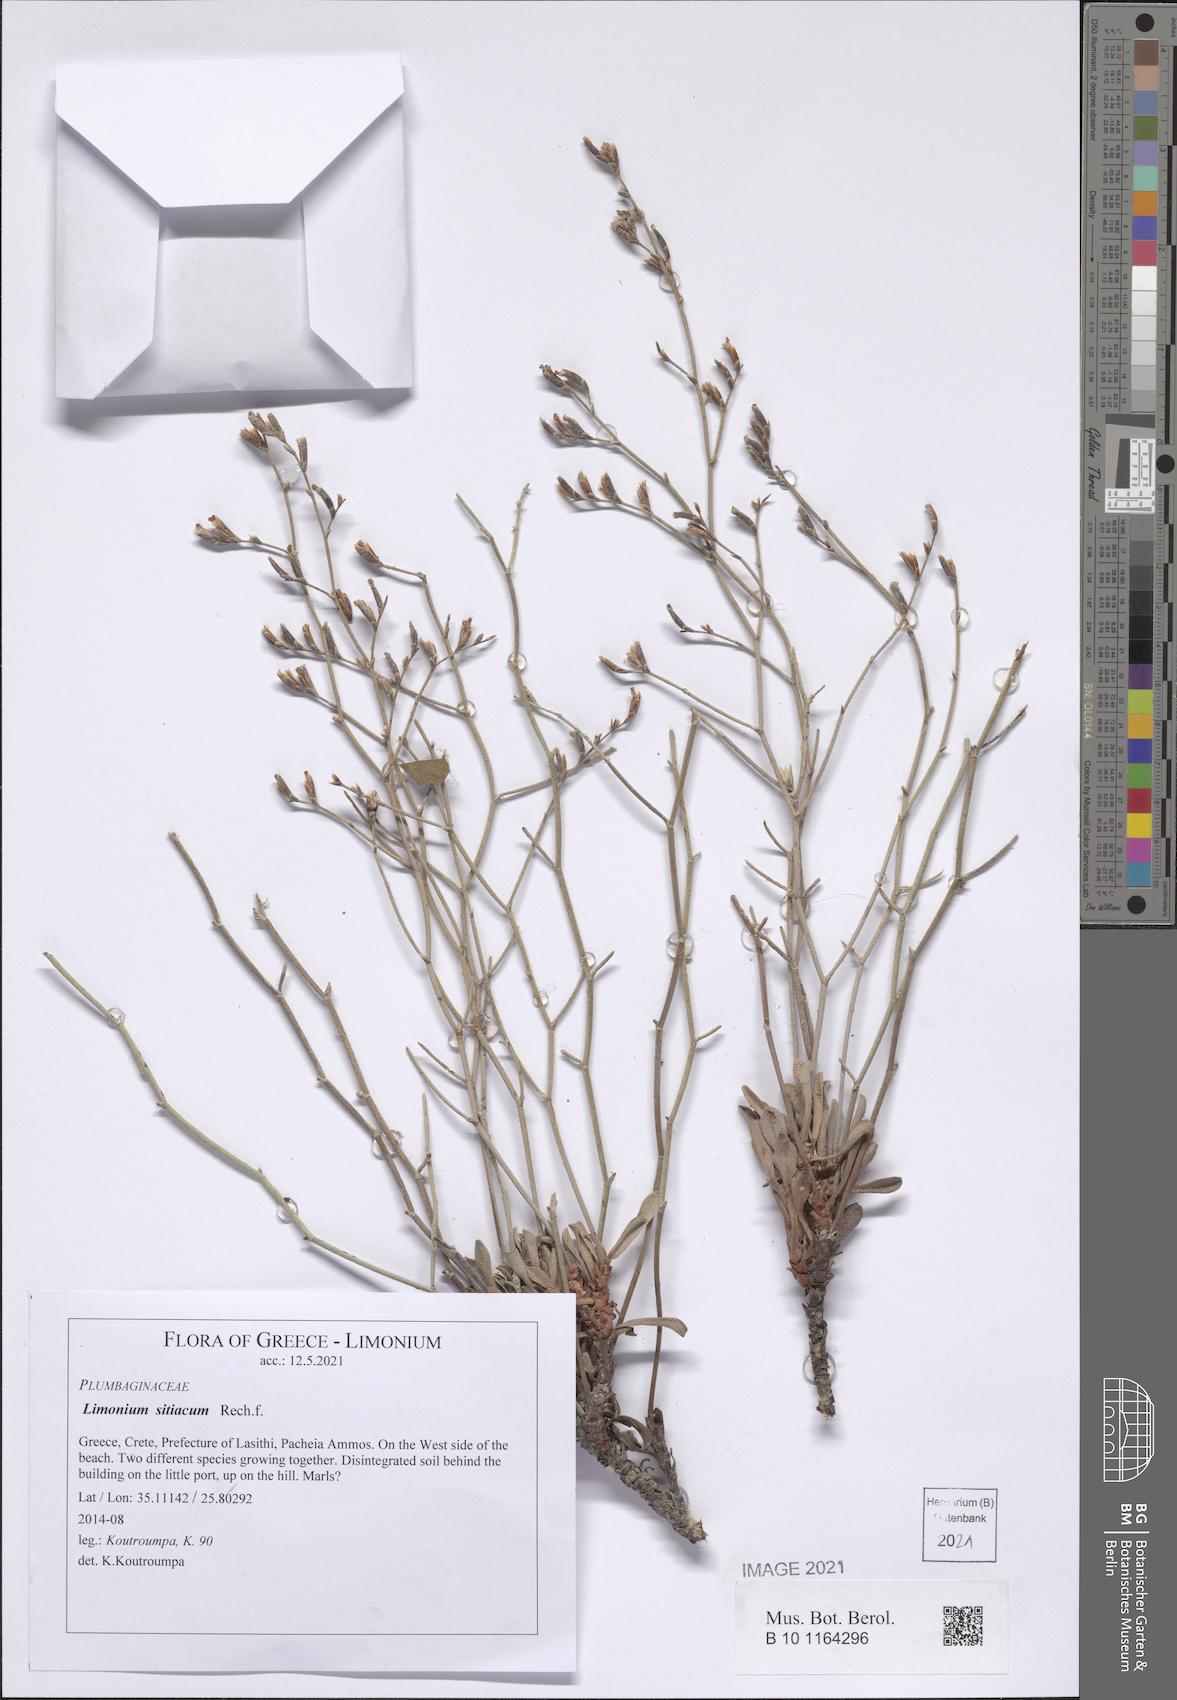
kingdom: Plantae
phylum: Tracheophyta
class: Magnoliopsida
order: Caryophyllales
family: Plumbaginaceae
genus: Limonium
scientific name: Limonium sitiacum
